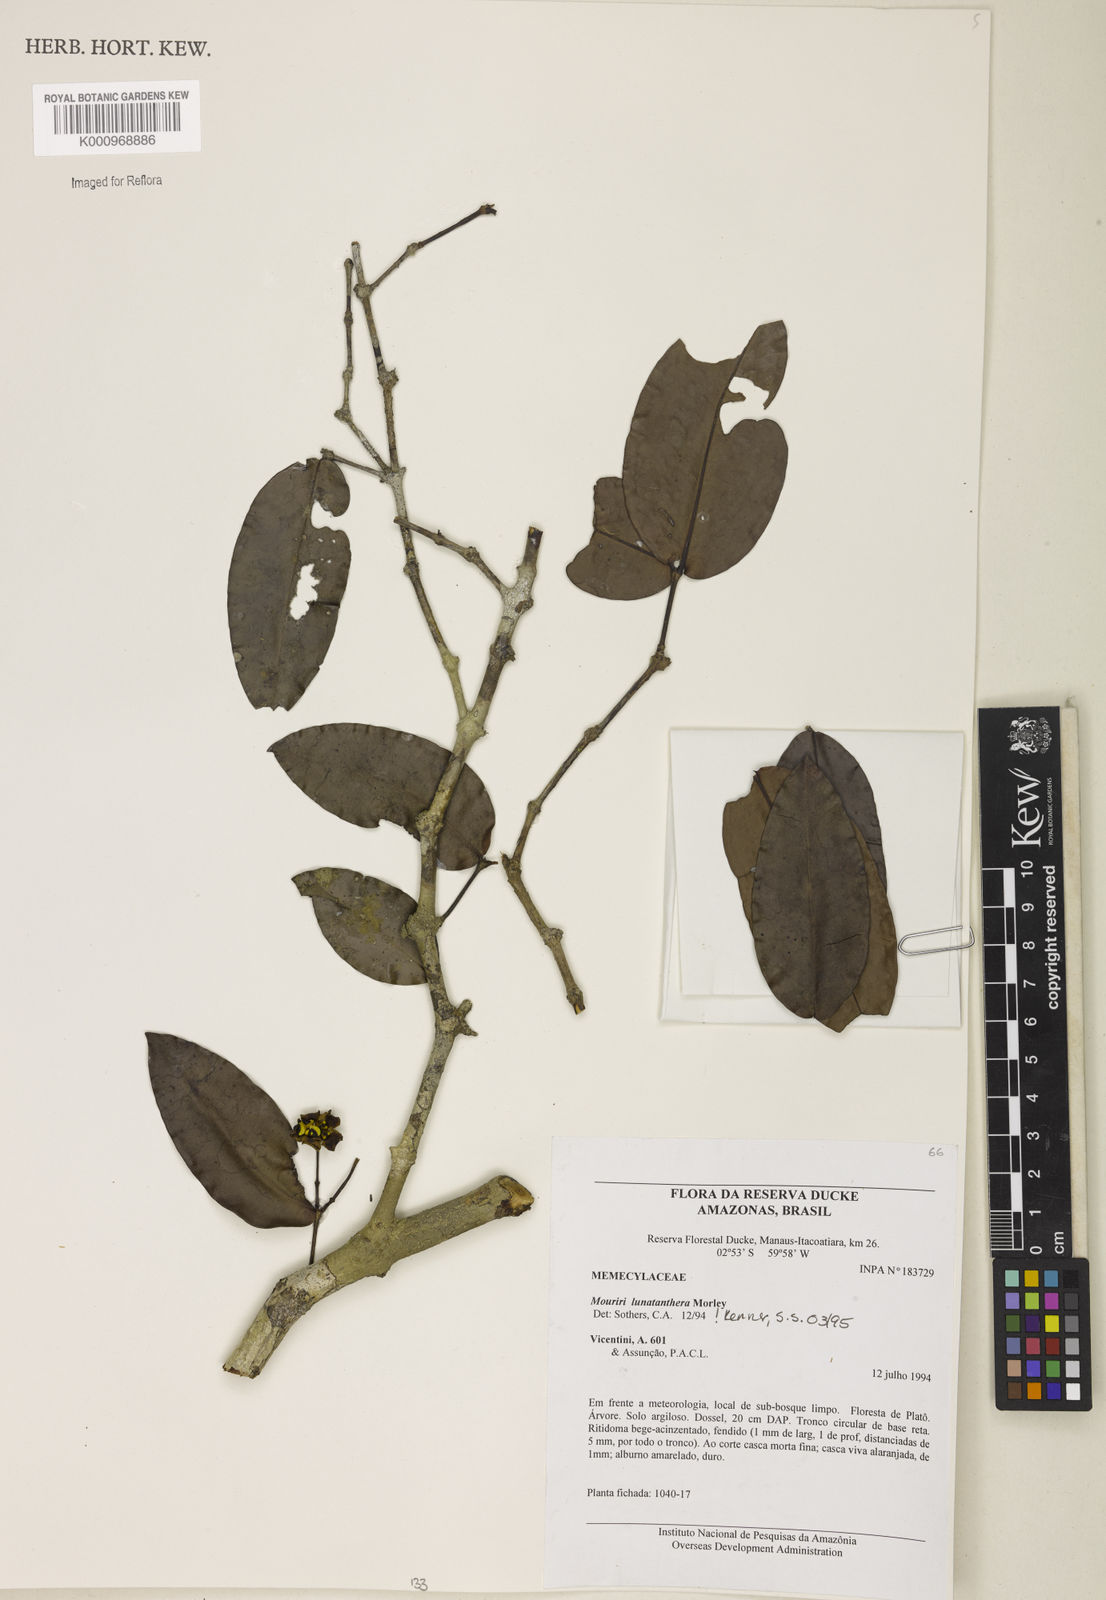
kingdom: Plantae
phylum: Tracheophyta
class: Magnoliopsida
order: Myrtales
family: Melastomataceae
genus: Mouriri
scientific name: Mouriri
